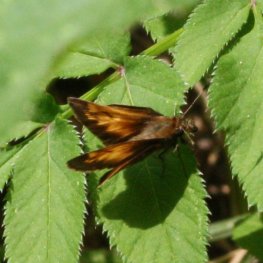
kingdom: Animalia
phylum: Arthropoda
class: Insecta
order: Lepidoptera
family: Hesperiidae
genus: Lon
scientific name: Lon hobomok
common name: Hobomok Skipper
